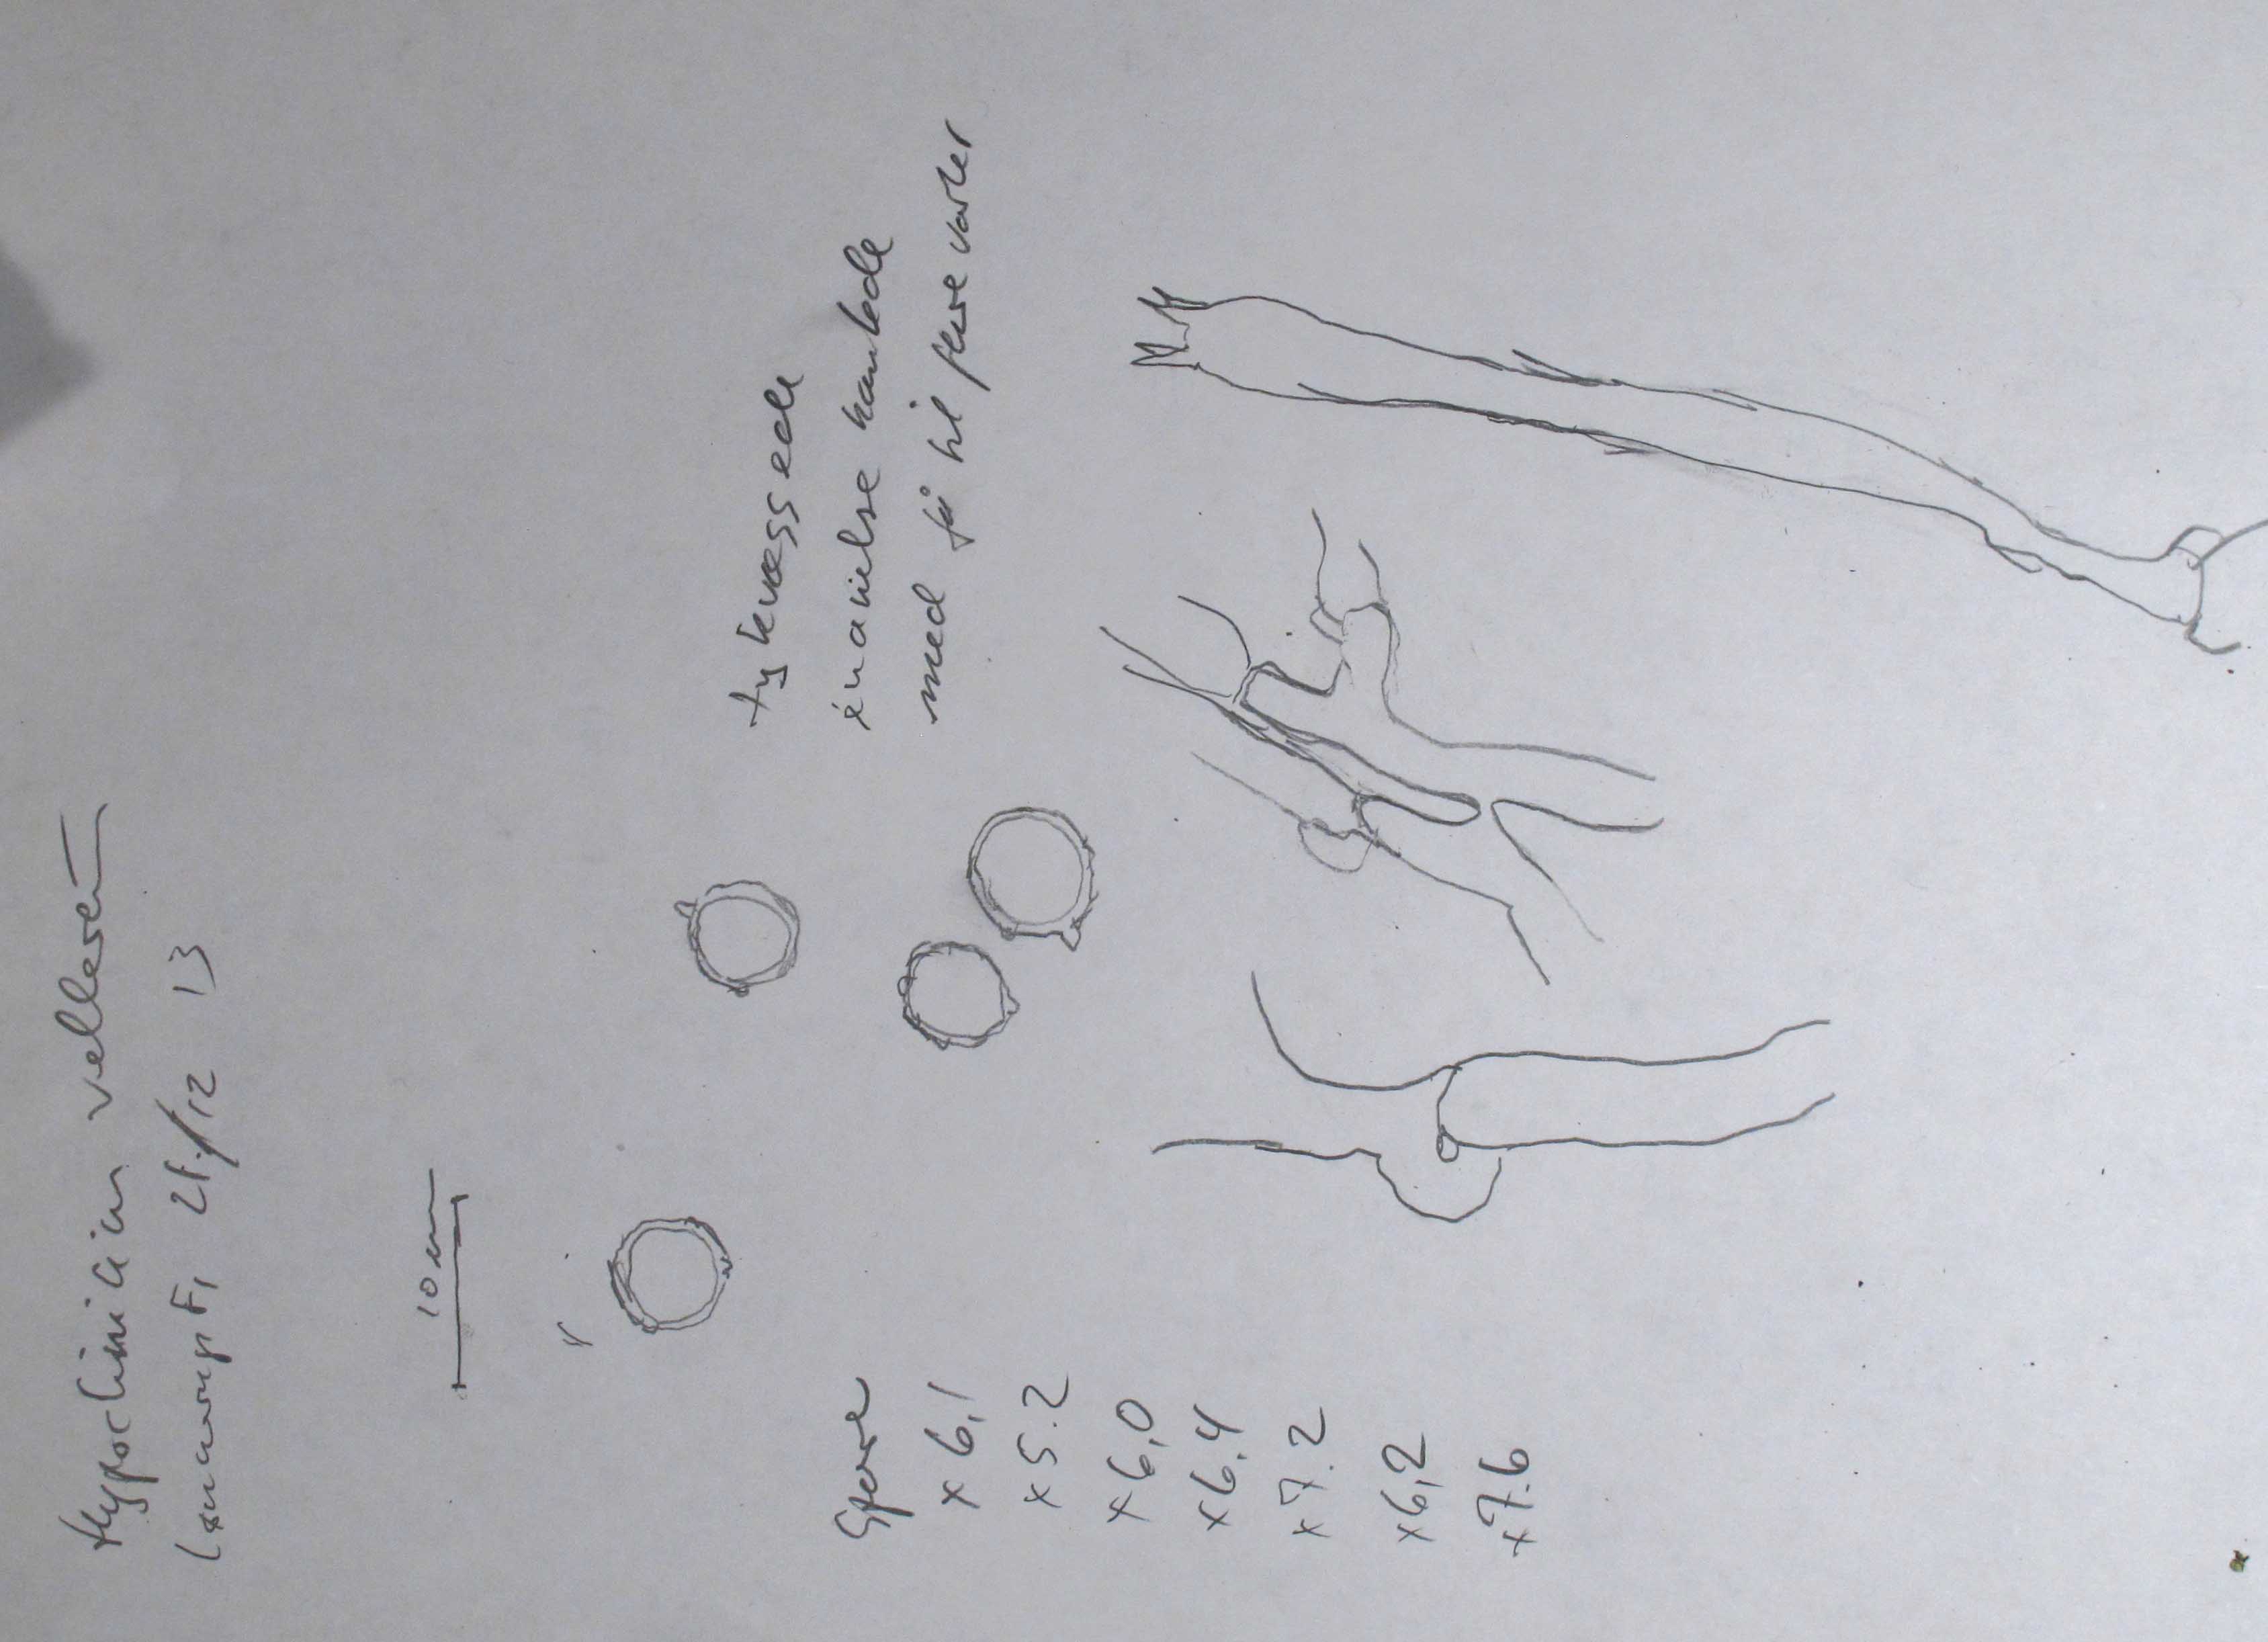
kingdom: Fungi
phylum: Basidiomycota
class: Agaricomycetes
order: Agaricales
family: Cyphellaceae
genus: Granulobasidium
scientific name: Granulobasidium vellereum
